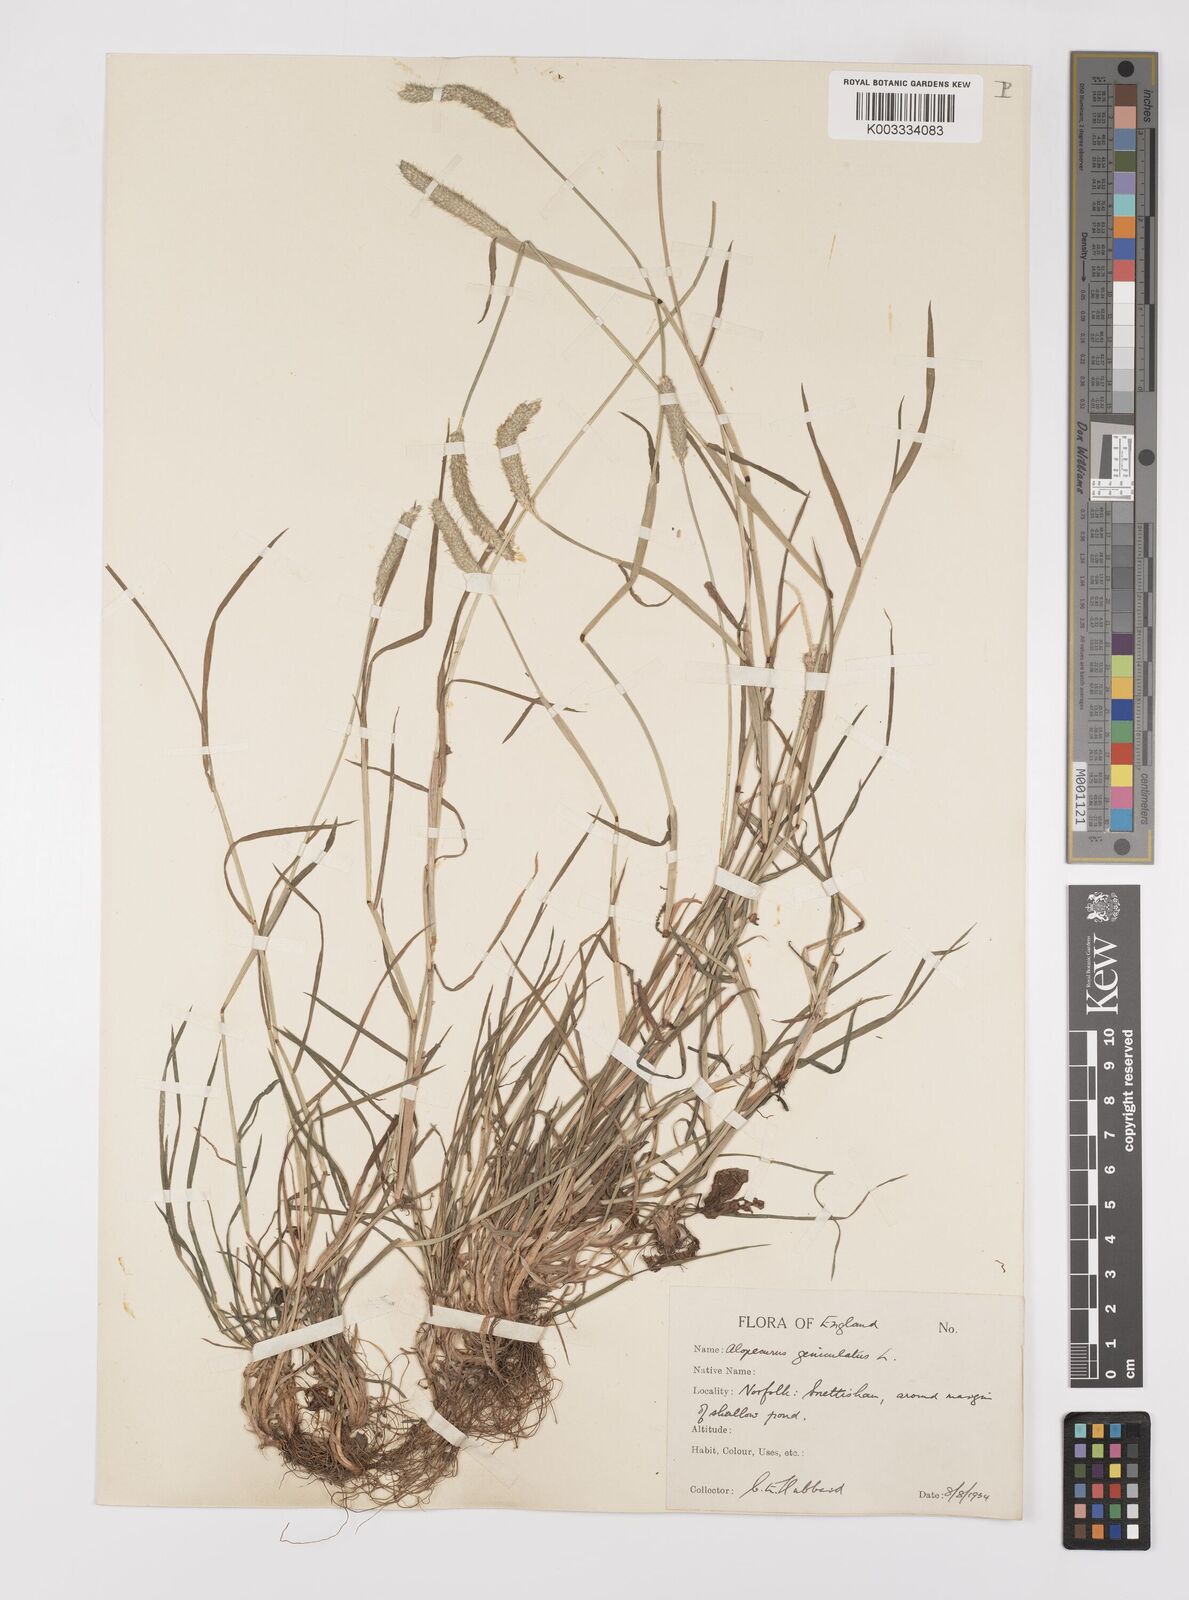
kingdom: Plantae
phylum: Tracheophyta
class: Liliopsida
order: Poales
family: Poaceae
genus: Alopecurus
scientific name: Alopecurus geniculatus
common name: Water foxtail
